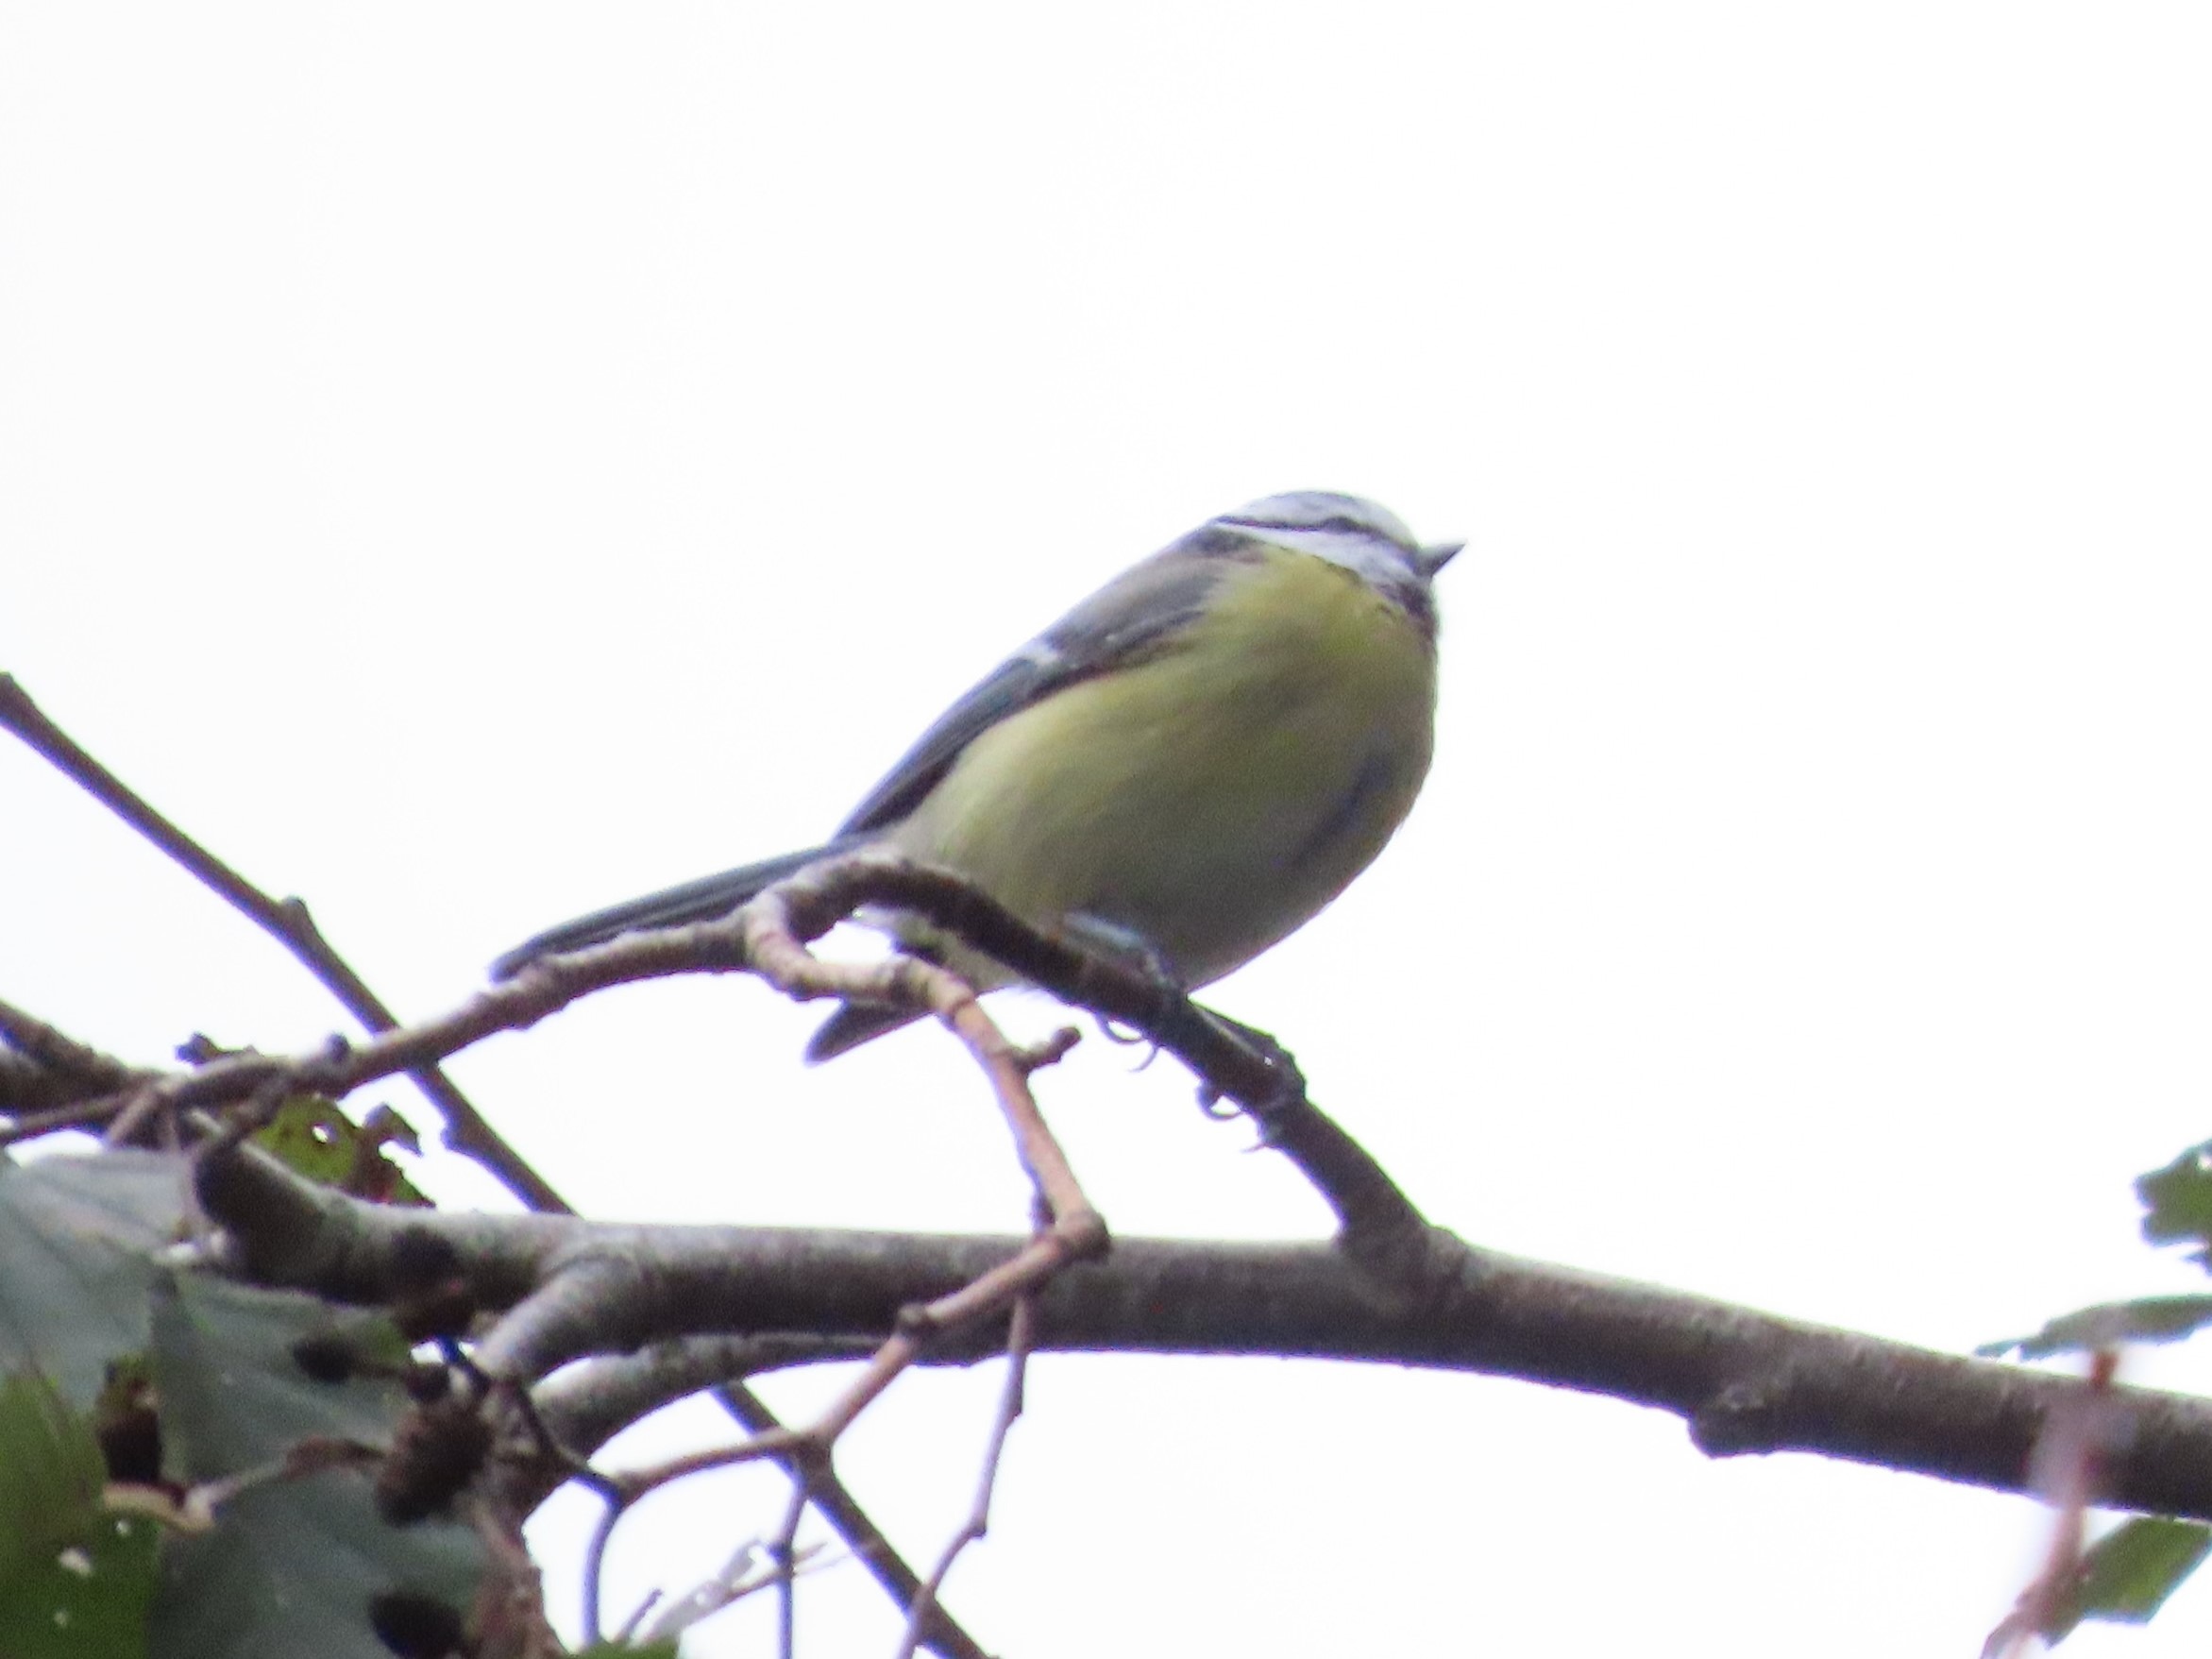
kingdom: Animalia
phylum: Chordata
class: Aves
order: Passeriformes
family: Paridae
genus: Cyanistes
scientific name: Cyanistes caeruleus
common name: Blåmejse
